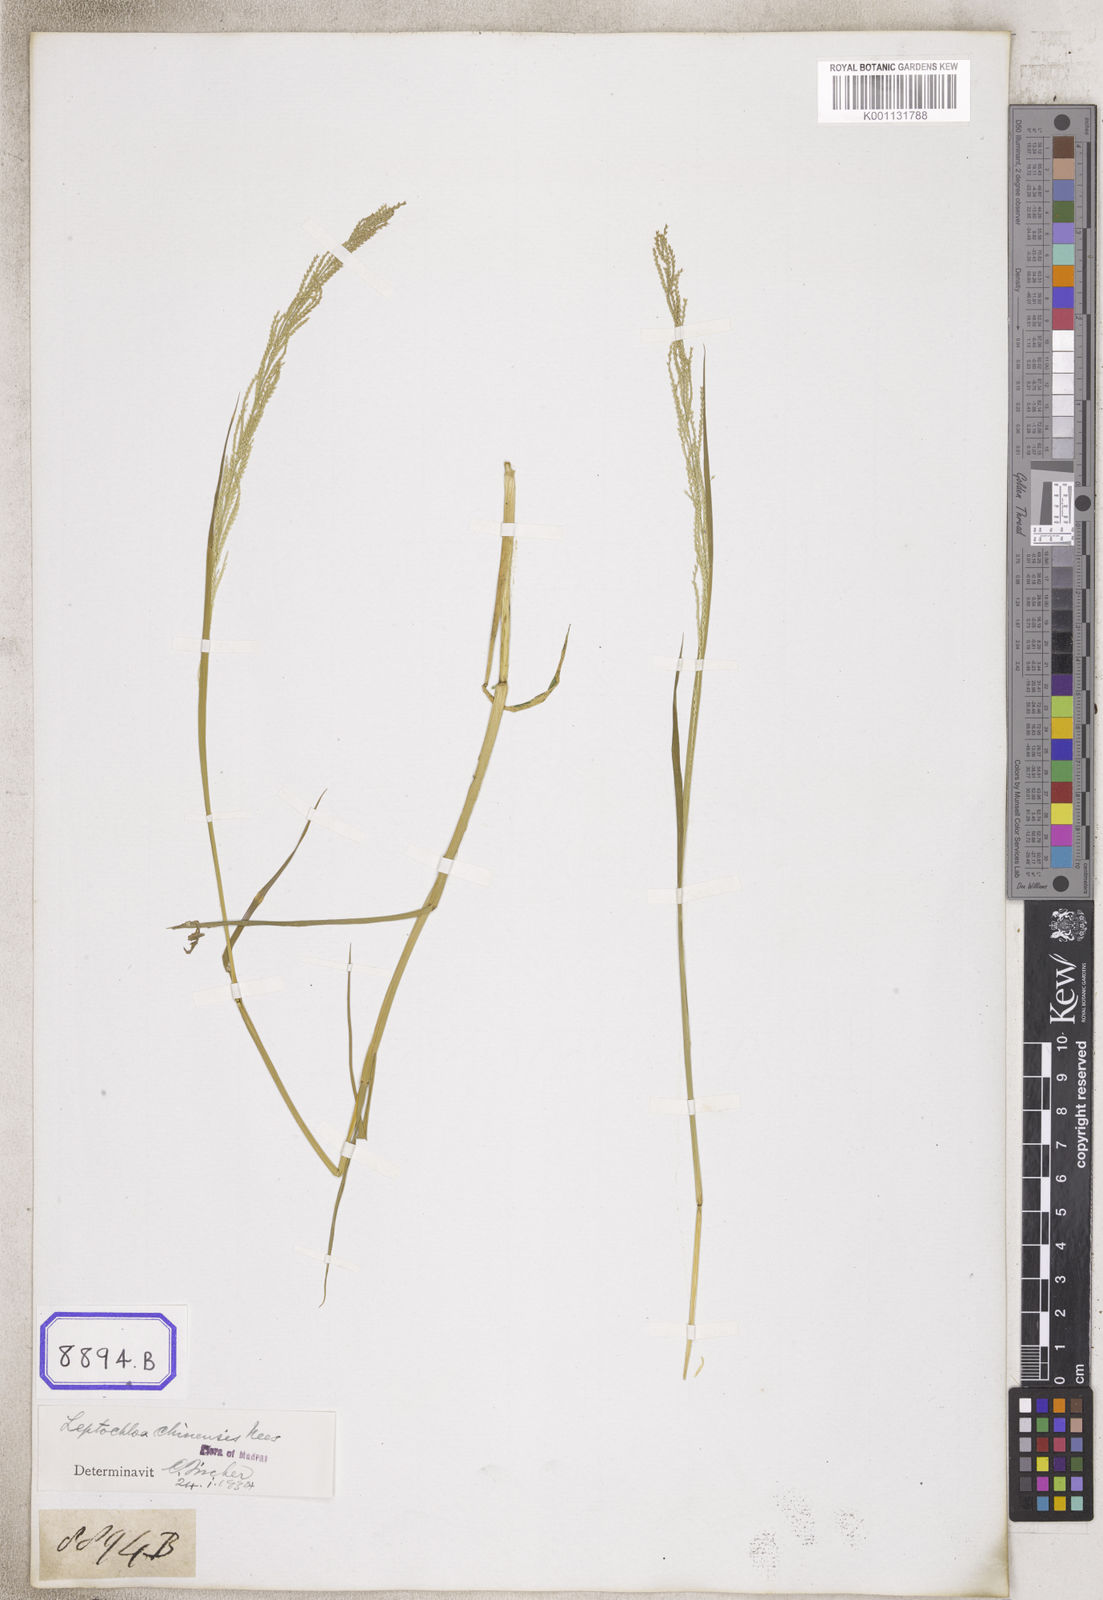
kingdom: Plantae
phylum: Tracheophyta
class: Liliopsida
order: Poales
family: Poaceae
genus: Dinebra
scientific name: Dinebra polystachyos
